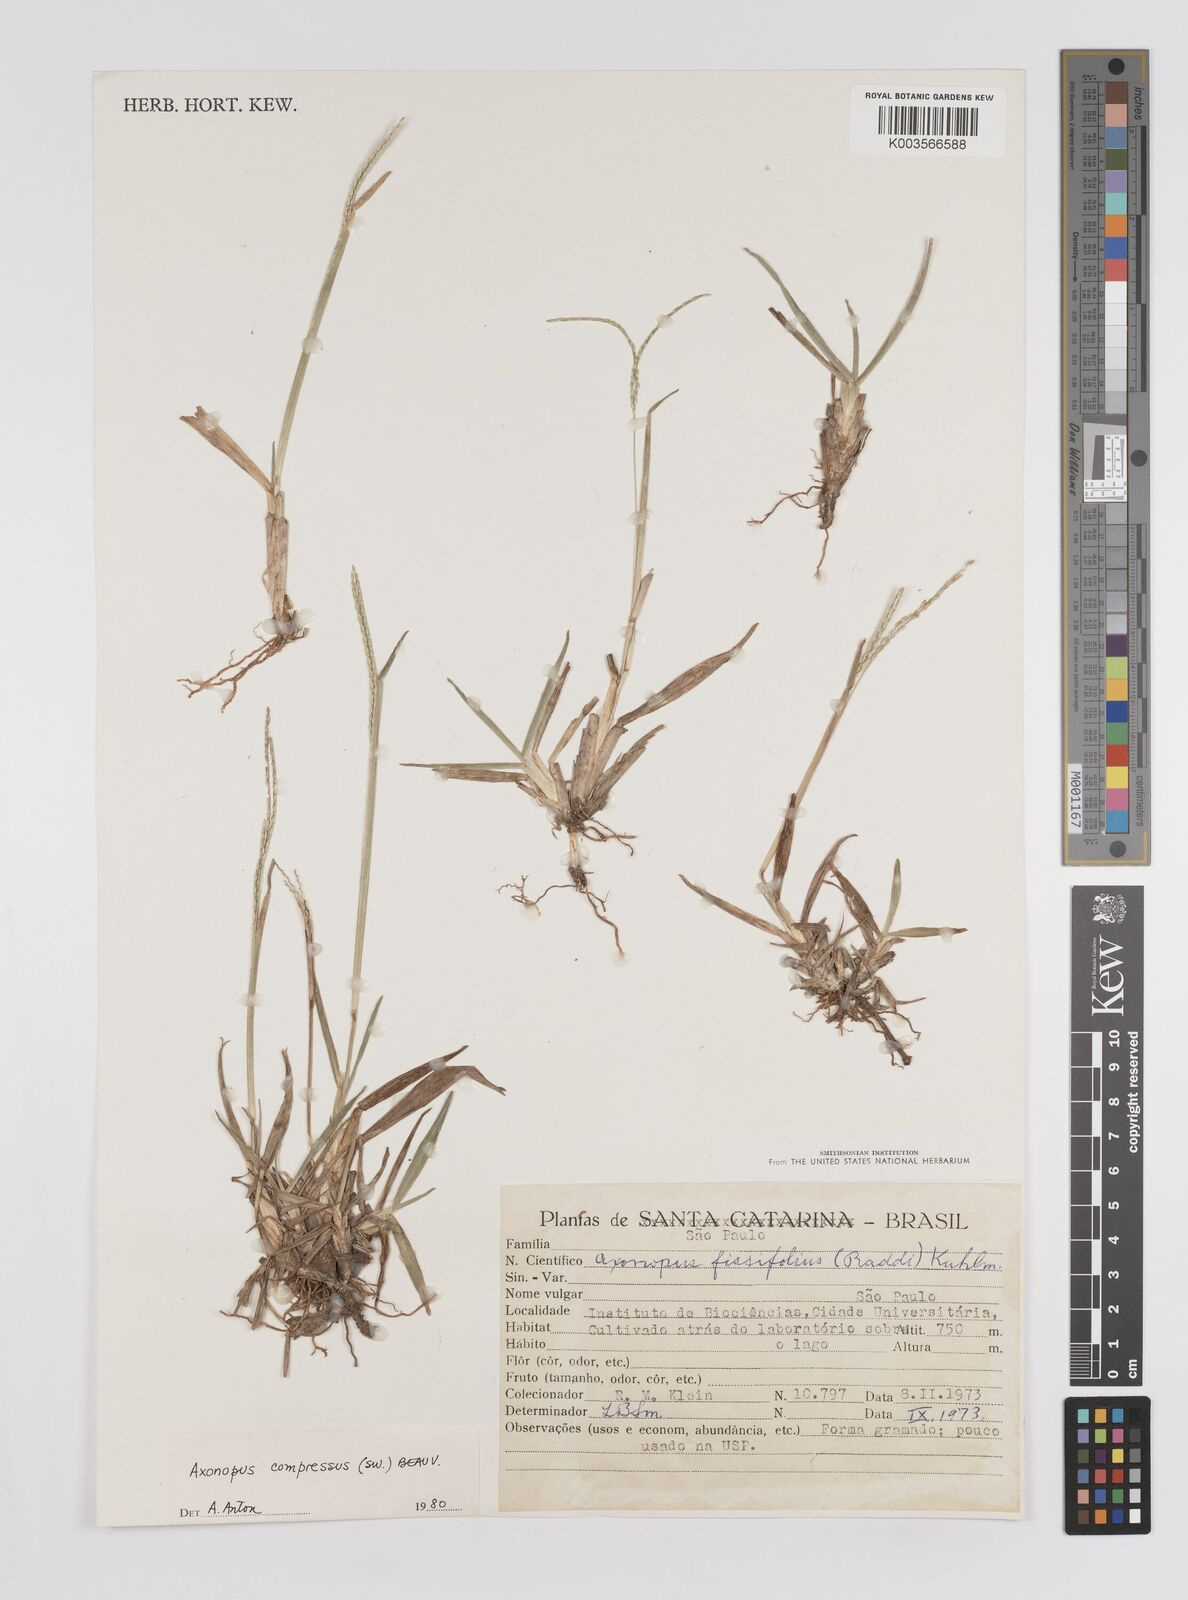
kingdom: Plantae
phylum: Tracheophyta
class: Liliopsida
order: Poales
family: Poaceae
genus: Axonopus
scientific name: Axonopus compressus
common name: American carpet grass
